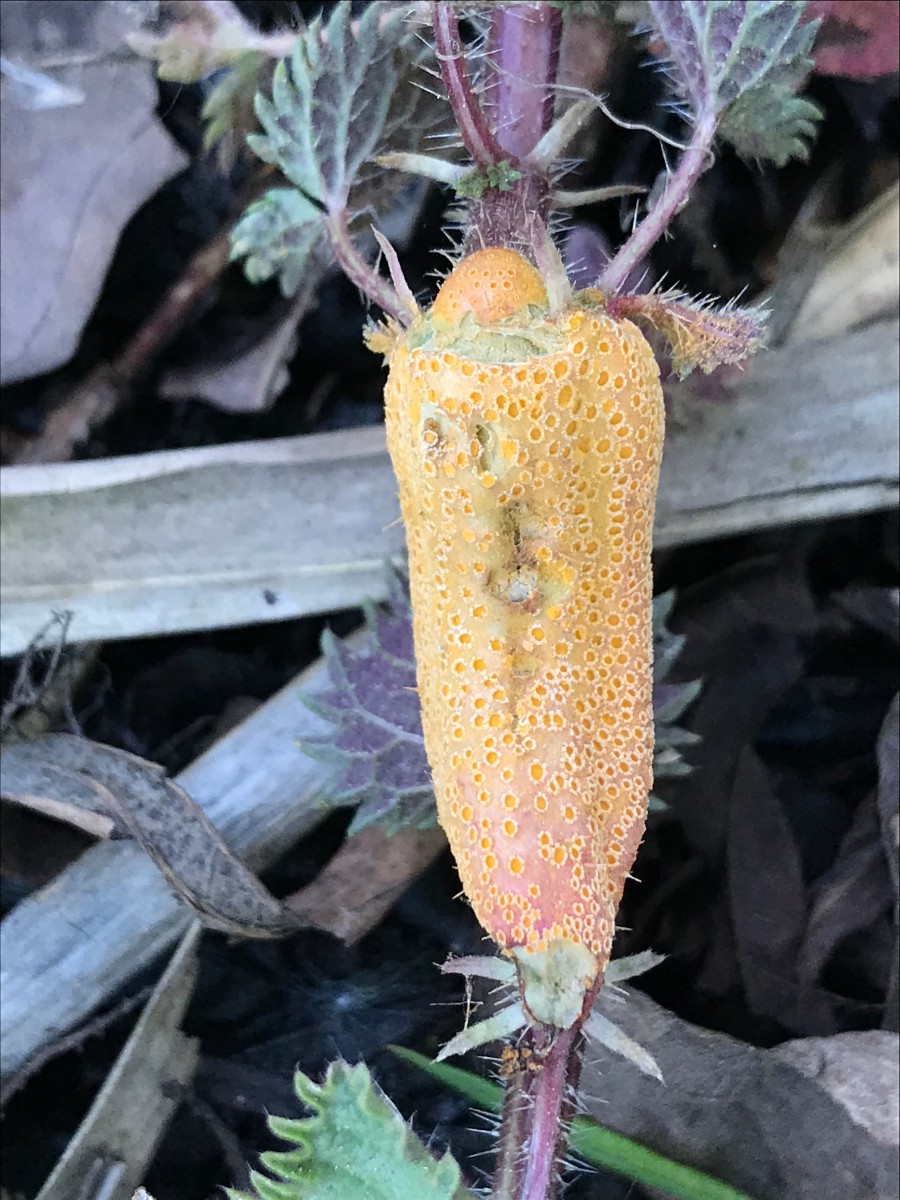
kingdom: Fungi
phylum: Basidiomycota
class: Pucciniomycetes
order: Pucciniales
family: Pucciniaceae
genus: Puccinia
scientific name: Puccinia urticata
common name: nældegalle-tvecellerust
